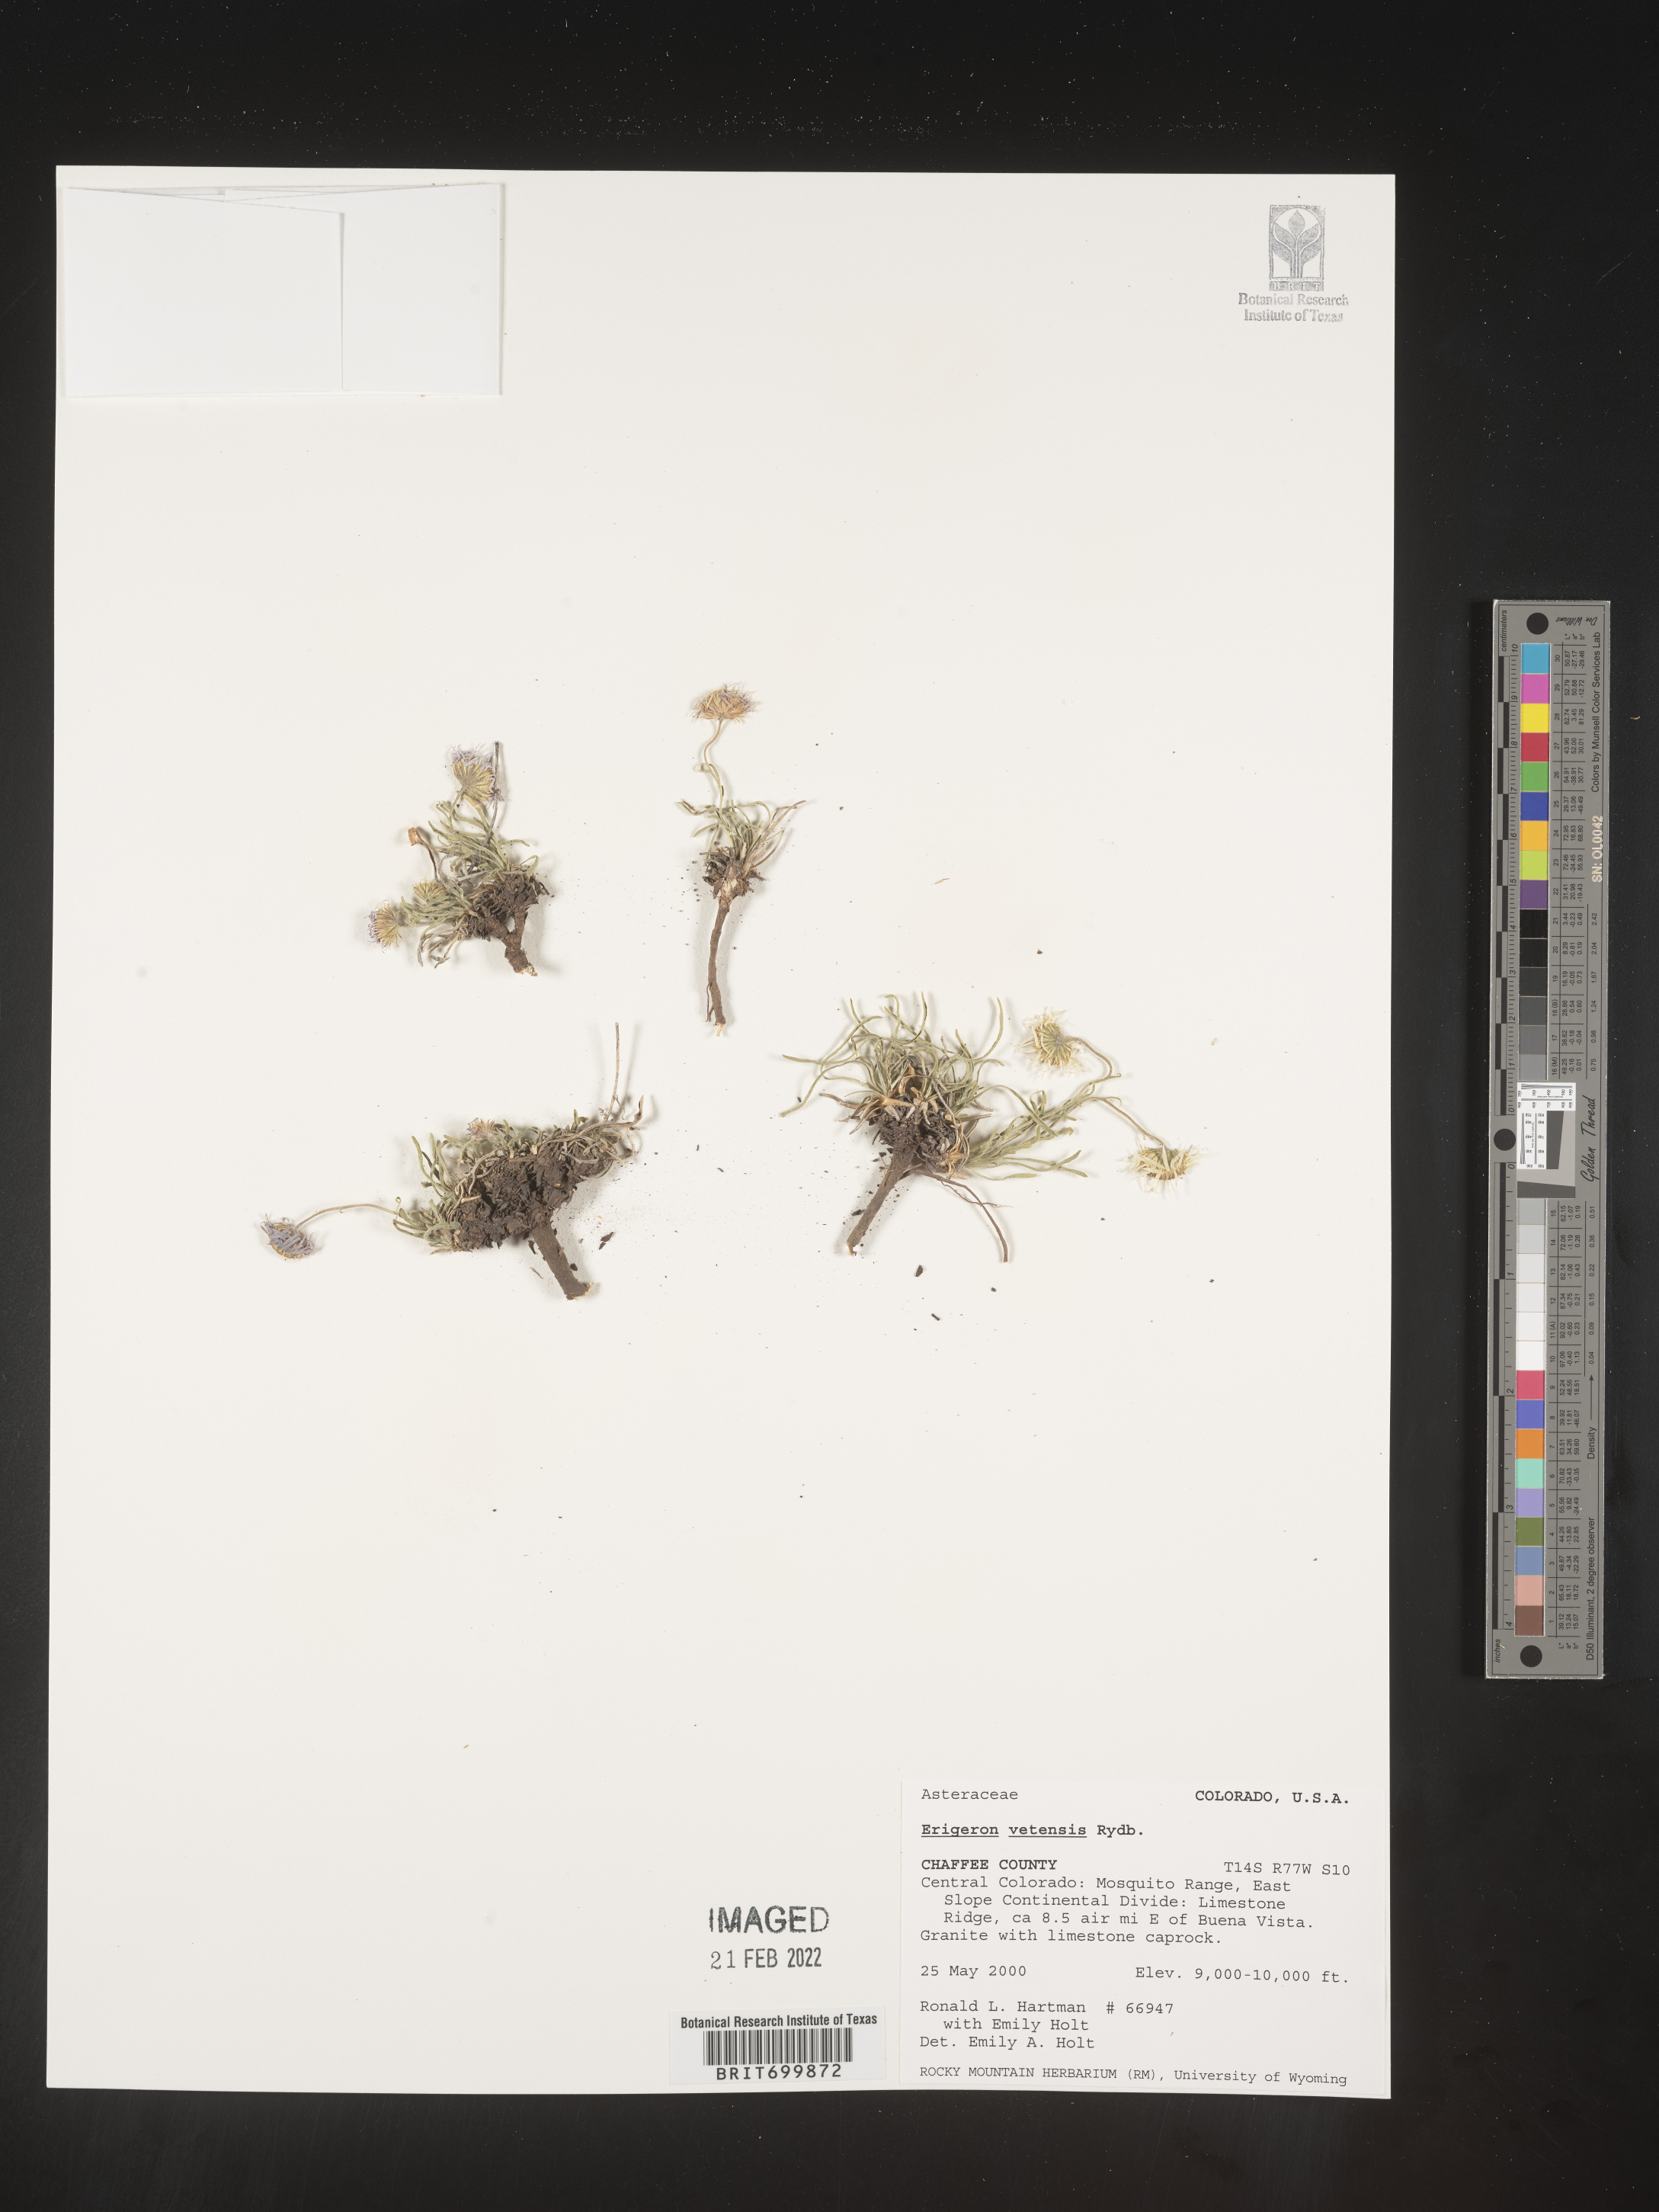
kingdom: Plantae
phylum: Tracheophyta
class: Magnoliopsida
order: Asterales
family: Asteraceae
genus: Erigeron
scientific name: Erigeron vetensis
